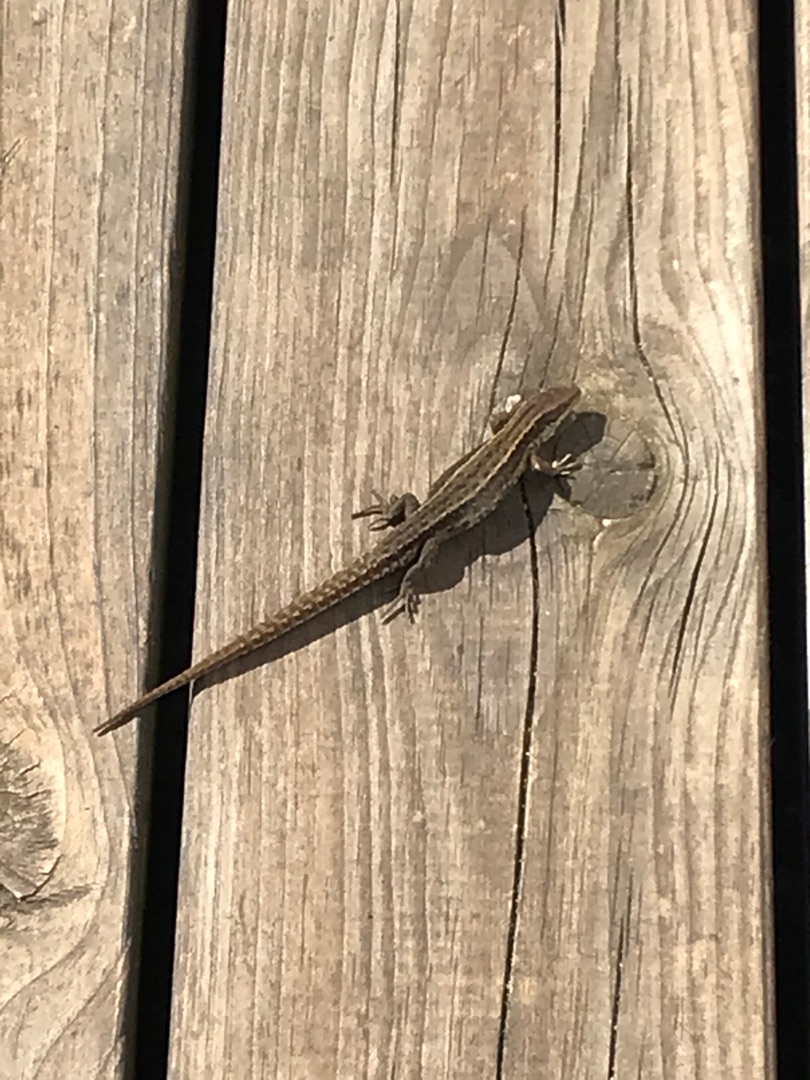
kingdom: Animalia
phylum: Chordata
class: Squamata
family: Lacertidae
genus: Zootoca
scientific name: Zootoca vivipara
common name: Skovfirben
